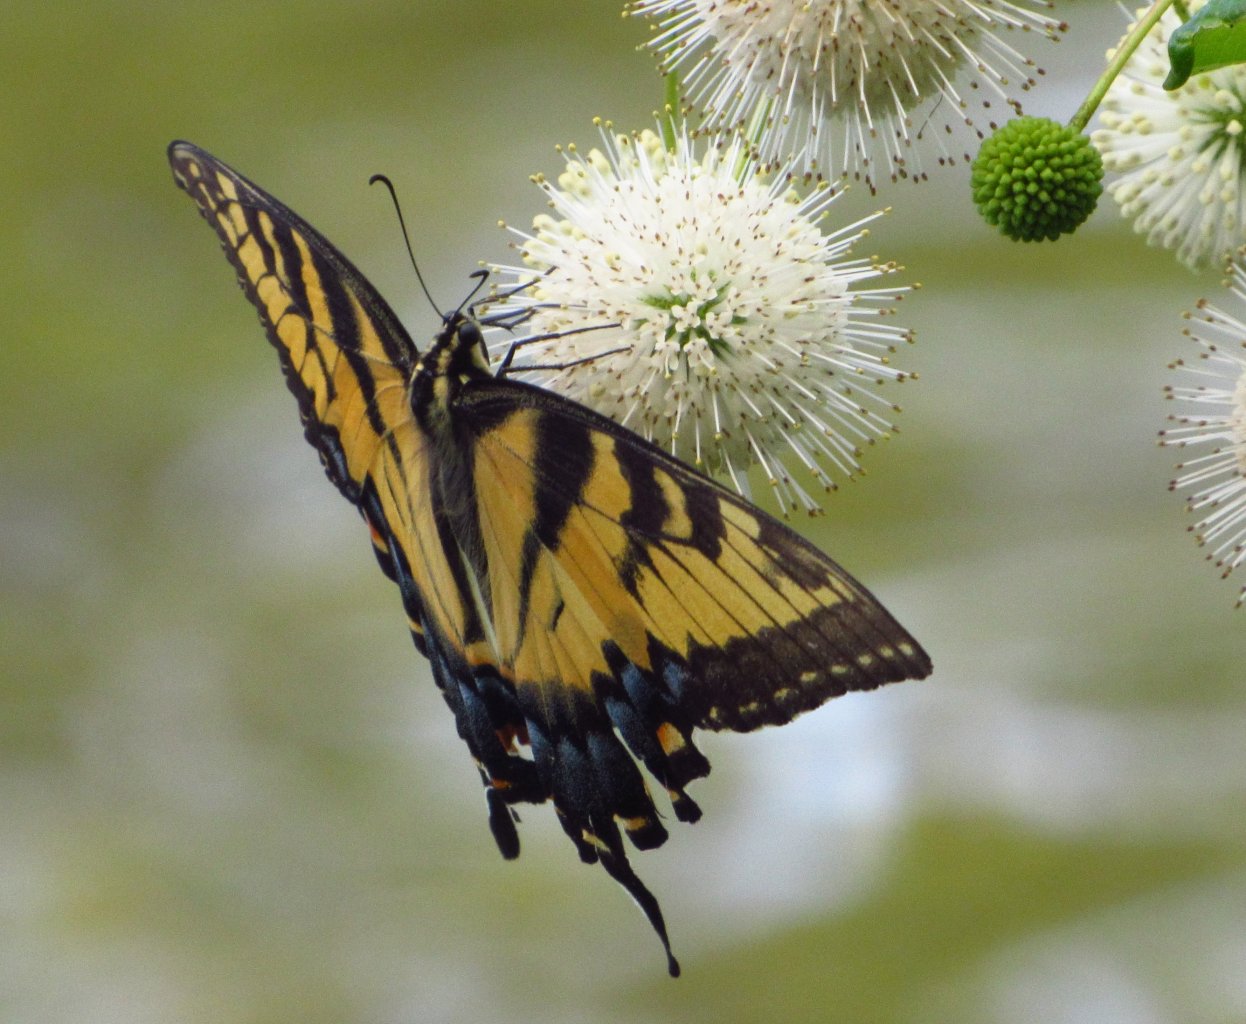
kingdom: Animalia
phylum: Arthropoda
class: Insecta
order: Lepidoptera
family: Papilionidae
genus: Pterourus
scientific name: Pterourus glaucus
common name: Eastern Tiger Swallowtail
